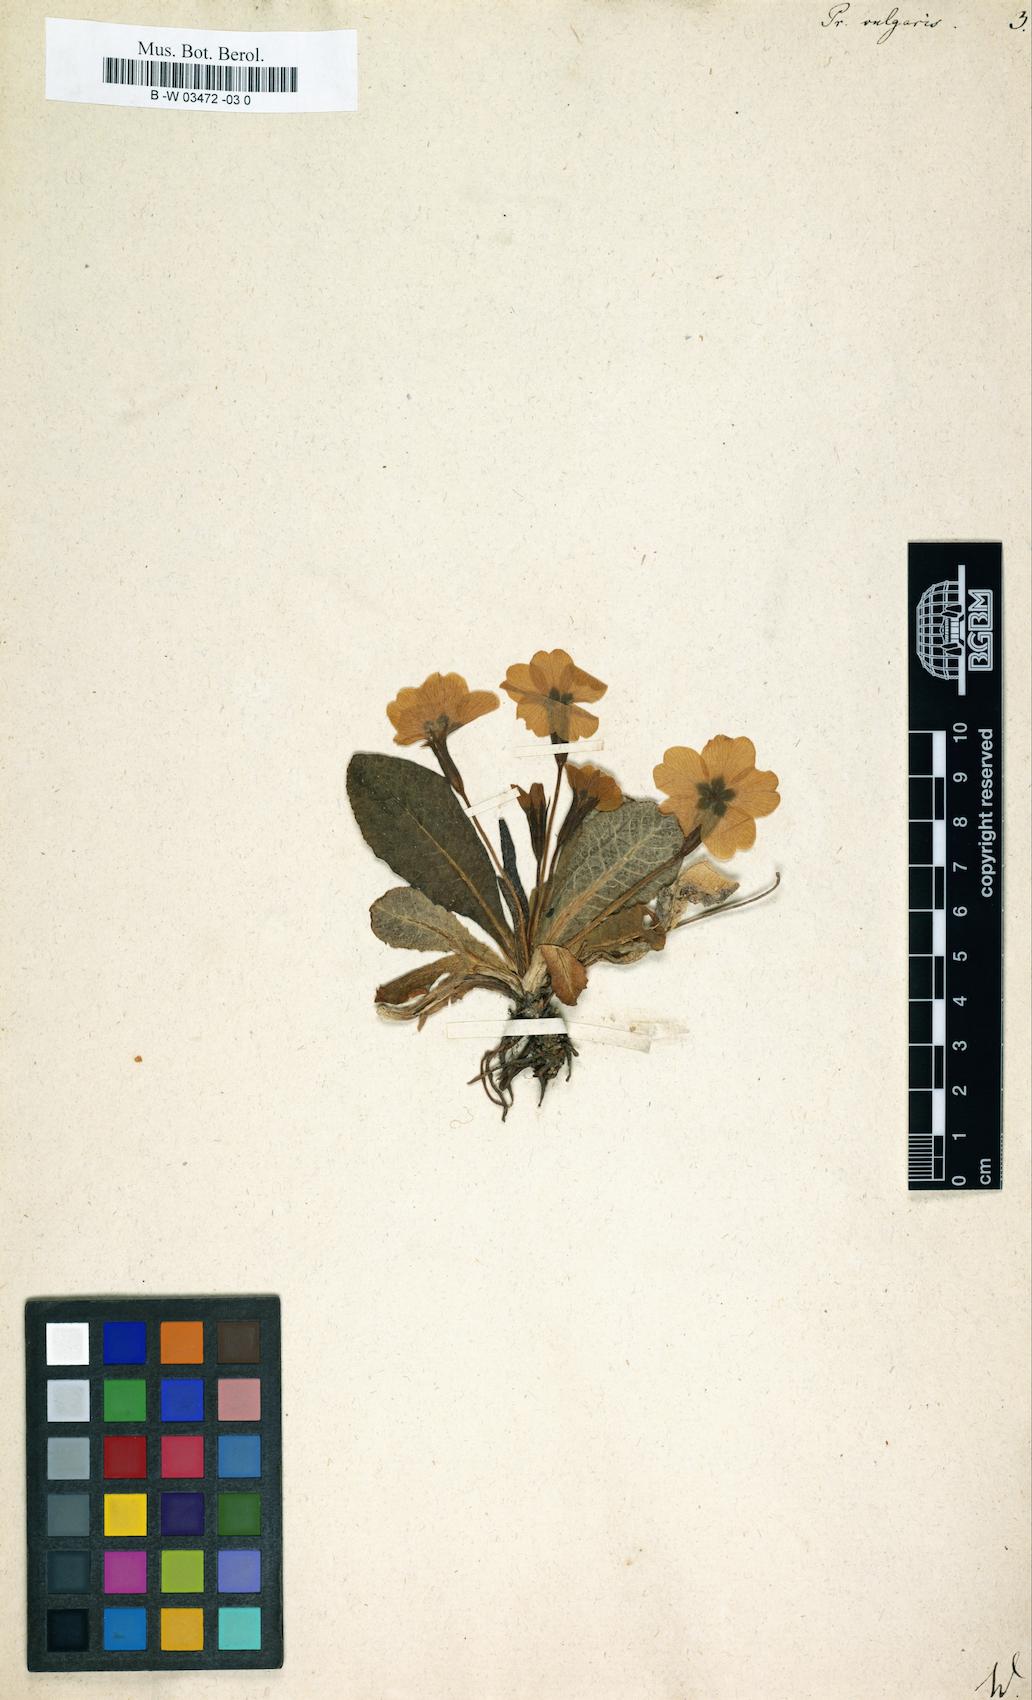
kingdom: Plantae
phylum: Tracheophyta
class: Magnoliopsida
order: Ericales
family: Primulaceae
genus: Primula
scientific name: Primula vulgaris
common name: Primrose
